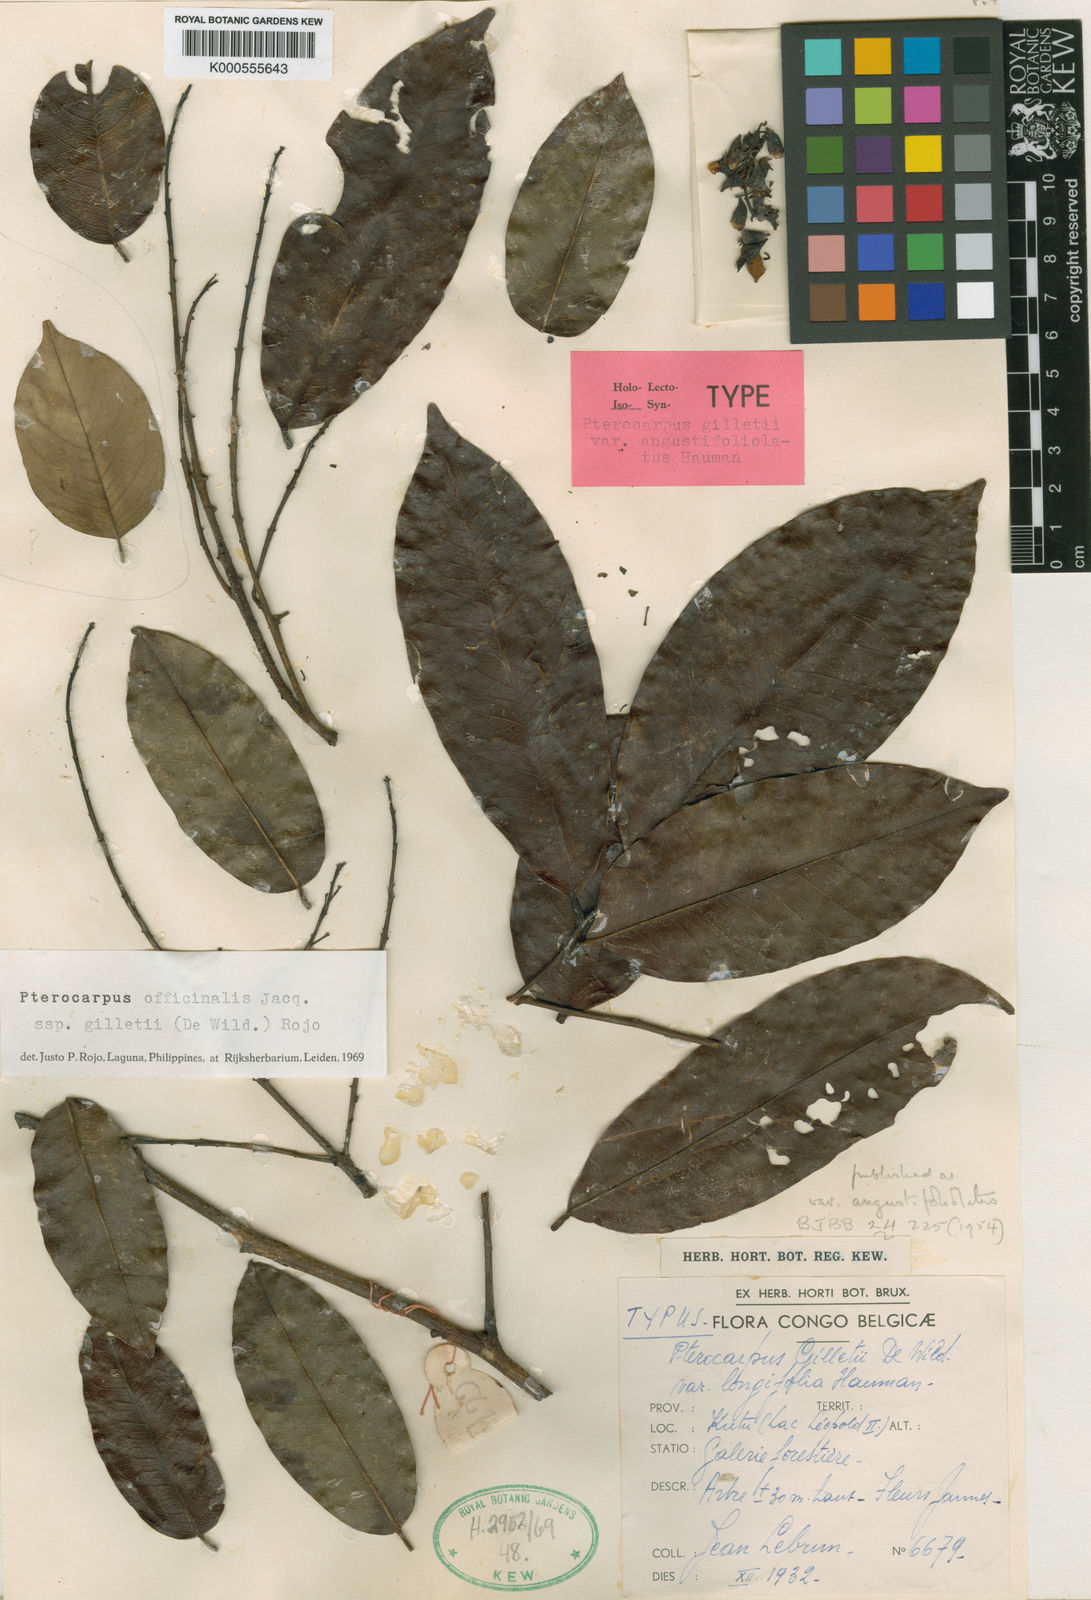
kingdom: Plantae
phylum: Tracheophyta
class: Magnoliopsida
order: Fabales
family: Fabaceae
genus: Pterocarpus
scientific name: Pterocarpus officinalis
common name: Bloodwood
